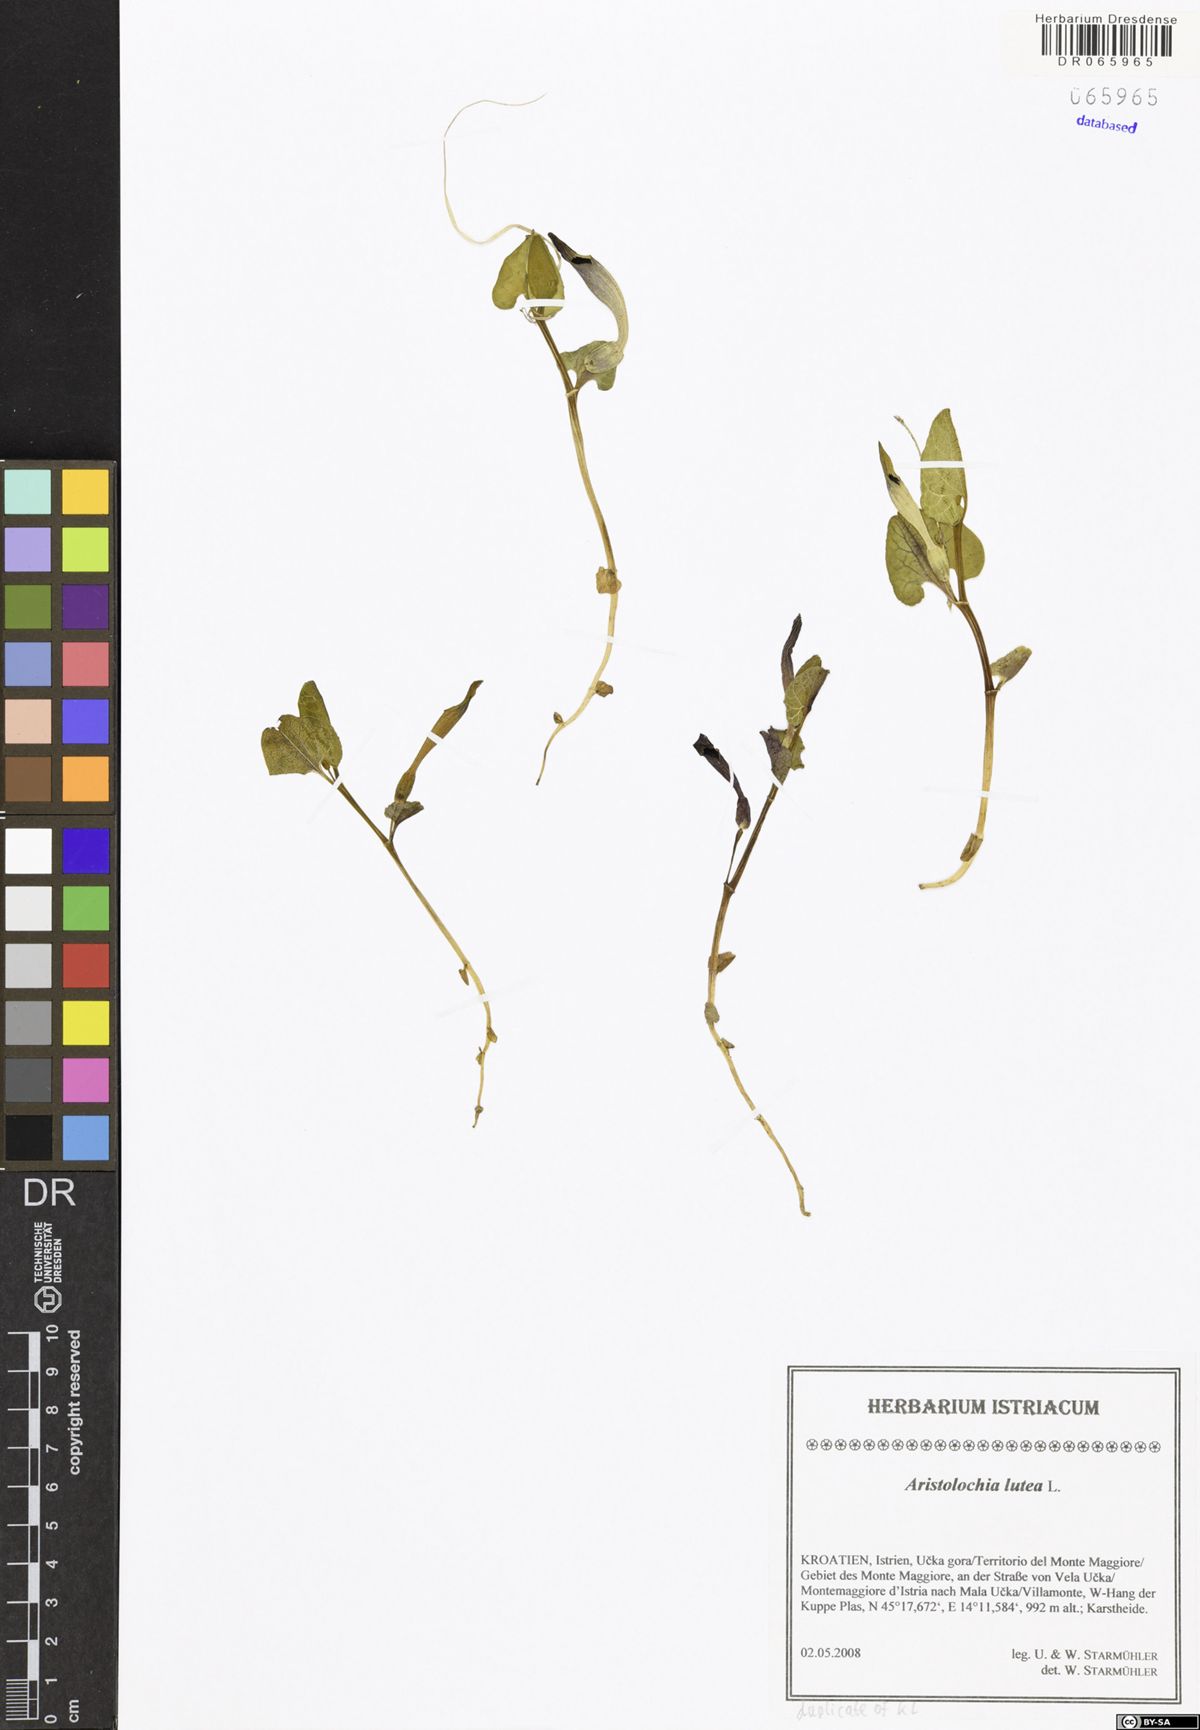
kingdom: Plantae
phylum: Tracheophyta
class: Magnoliopsida
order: Piperales
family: Aristolochiaceae
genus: Aristolochia
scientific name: Aristolochia lutea
